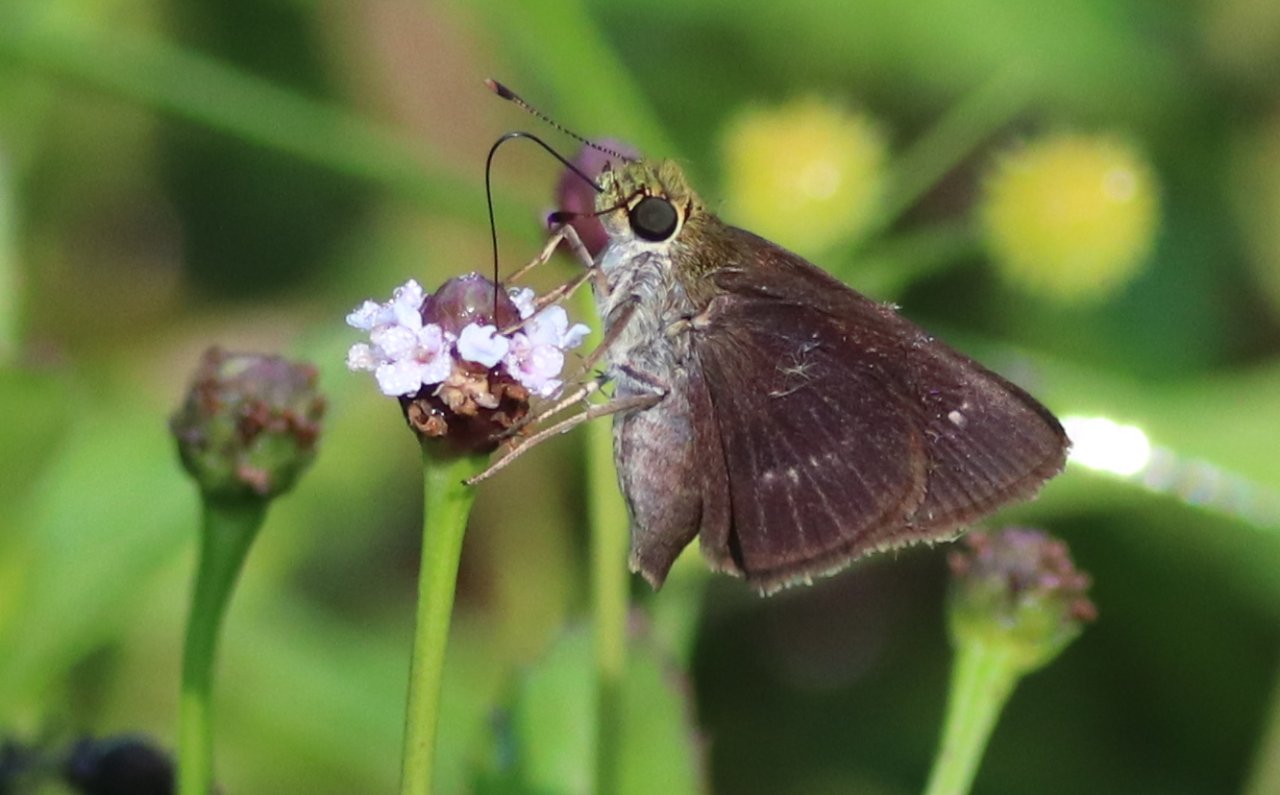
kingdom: Animalia
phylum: Arthropoda
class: Insecta
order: Lepidoptera
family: Hesperiidae
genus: Euphyes
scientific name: Euphyes vestris
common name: Dun Skipper
